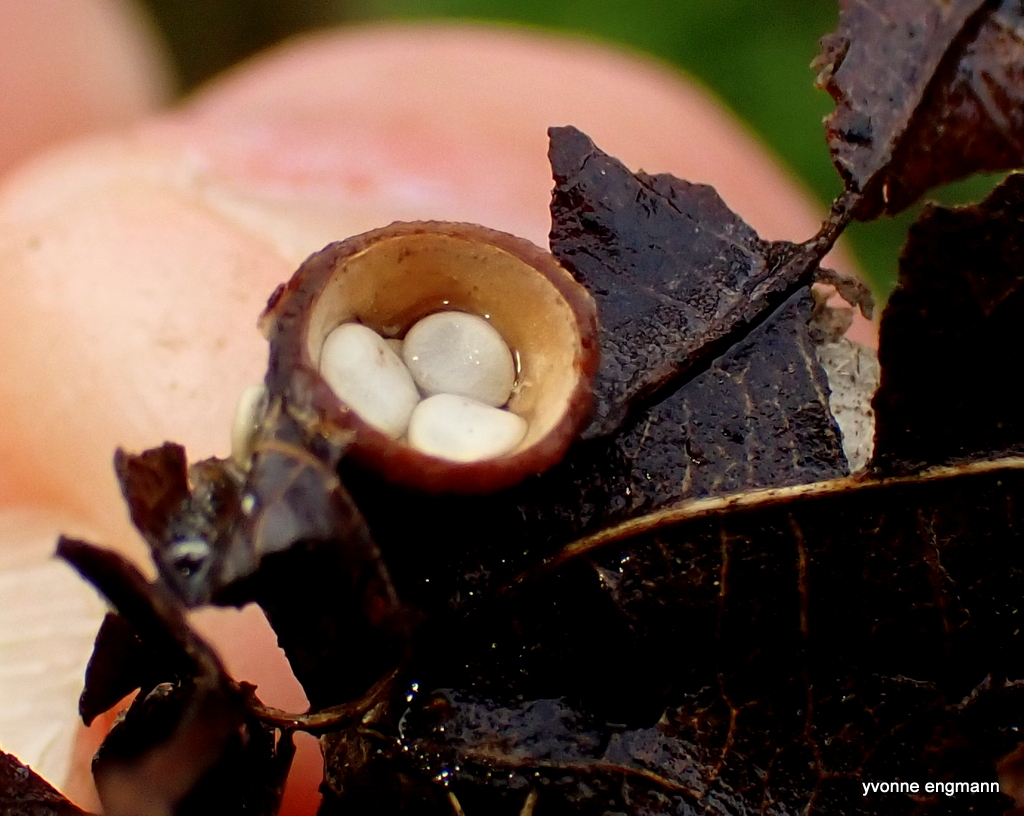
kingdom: Fungi
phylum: Basidiomycota
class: Agaricomycetes
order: Agaricales
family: Nidulariaceae
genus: Crucibulum
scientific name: Crucibulum crucibuliforme
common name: krukkesvamp
